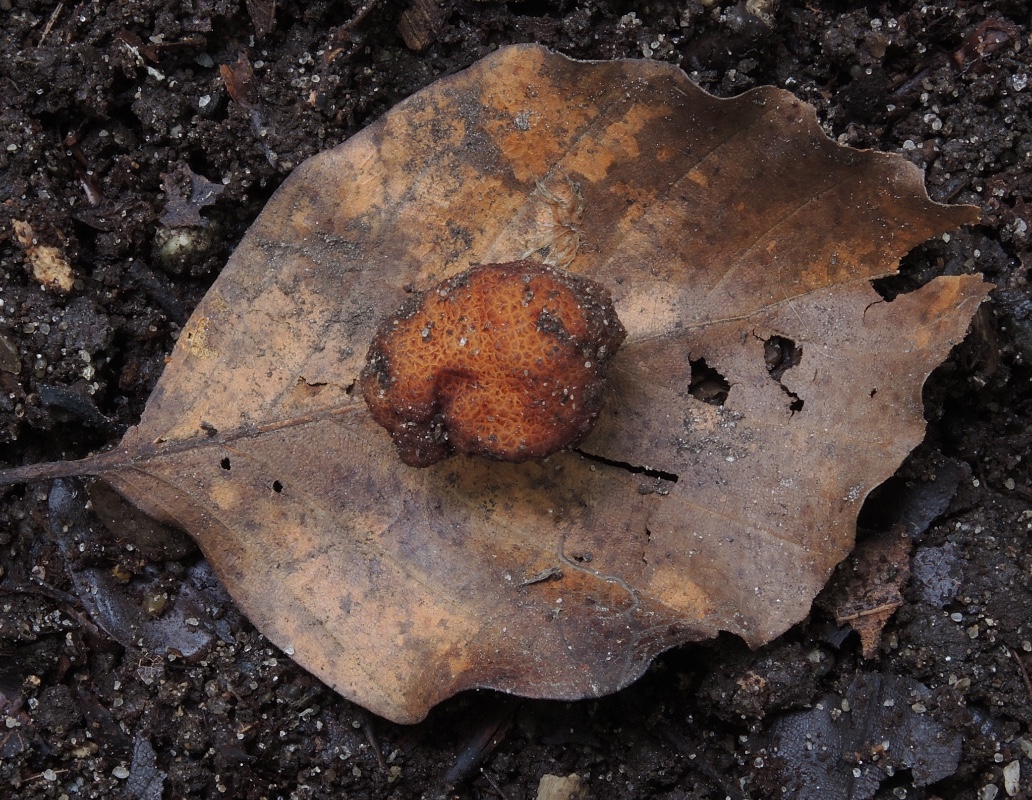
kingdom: Fungi
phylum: Ascomycota
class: Pezizomycetes
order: Pezizales
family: Helvellaceae
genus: Balsamia
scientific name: Balsamia polysperma
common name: bredsporet nøddetrøffel
